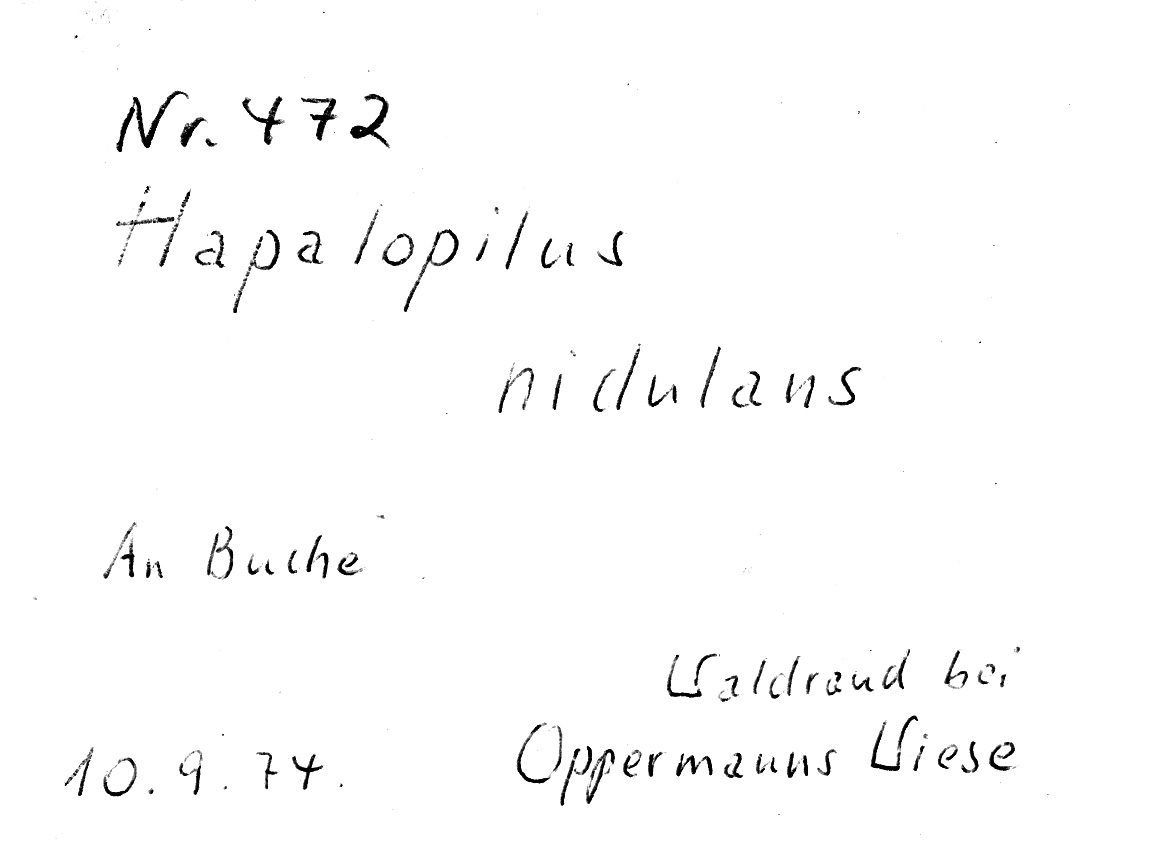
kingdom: Fungi
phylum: Basidiomycota
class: Agaricomycetes
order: Polyporales
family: Phanerochaetaceae
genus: Hapalopilus
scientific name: Hapalopilus rutilans
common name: Tender nesting polypore
